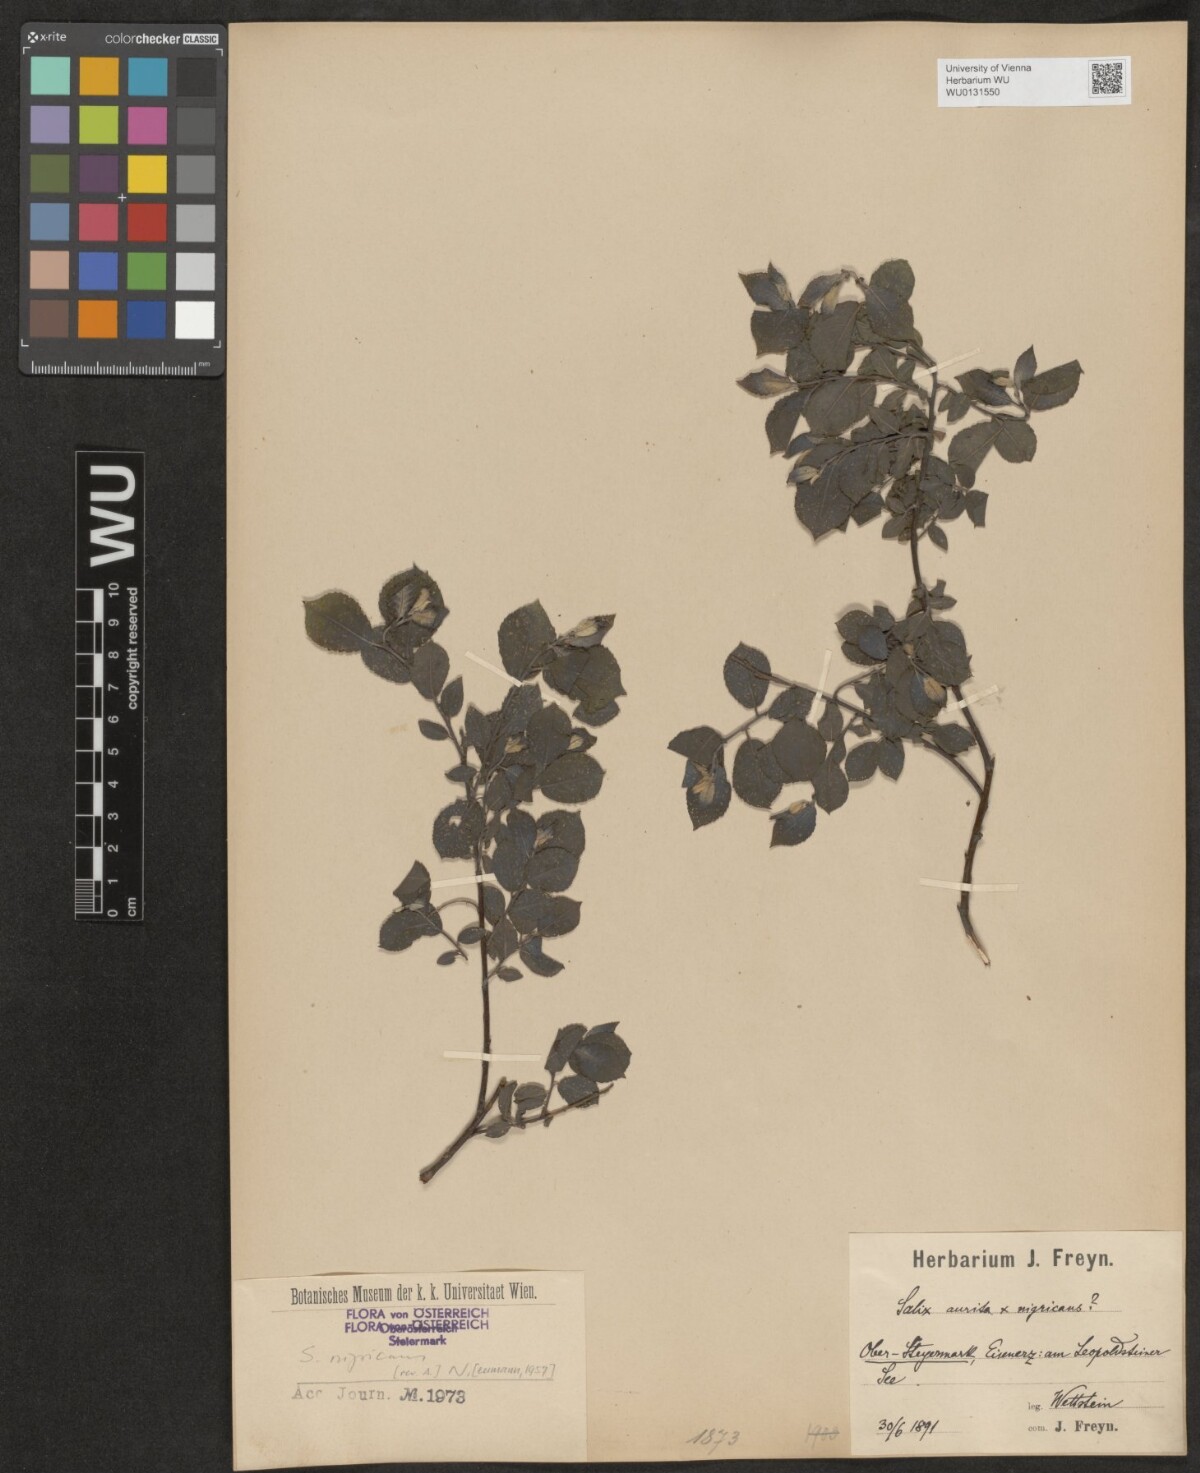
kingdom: Plantae
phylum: Tracheophyta
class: Magnoliopsida
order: Malpighiales
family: Salicaceae
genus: Salix
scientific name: Salix myrsinifolia
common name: Dark-leaved willow
